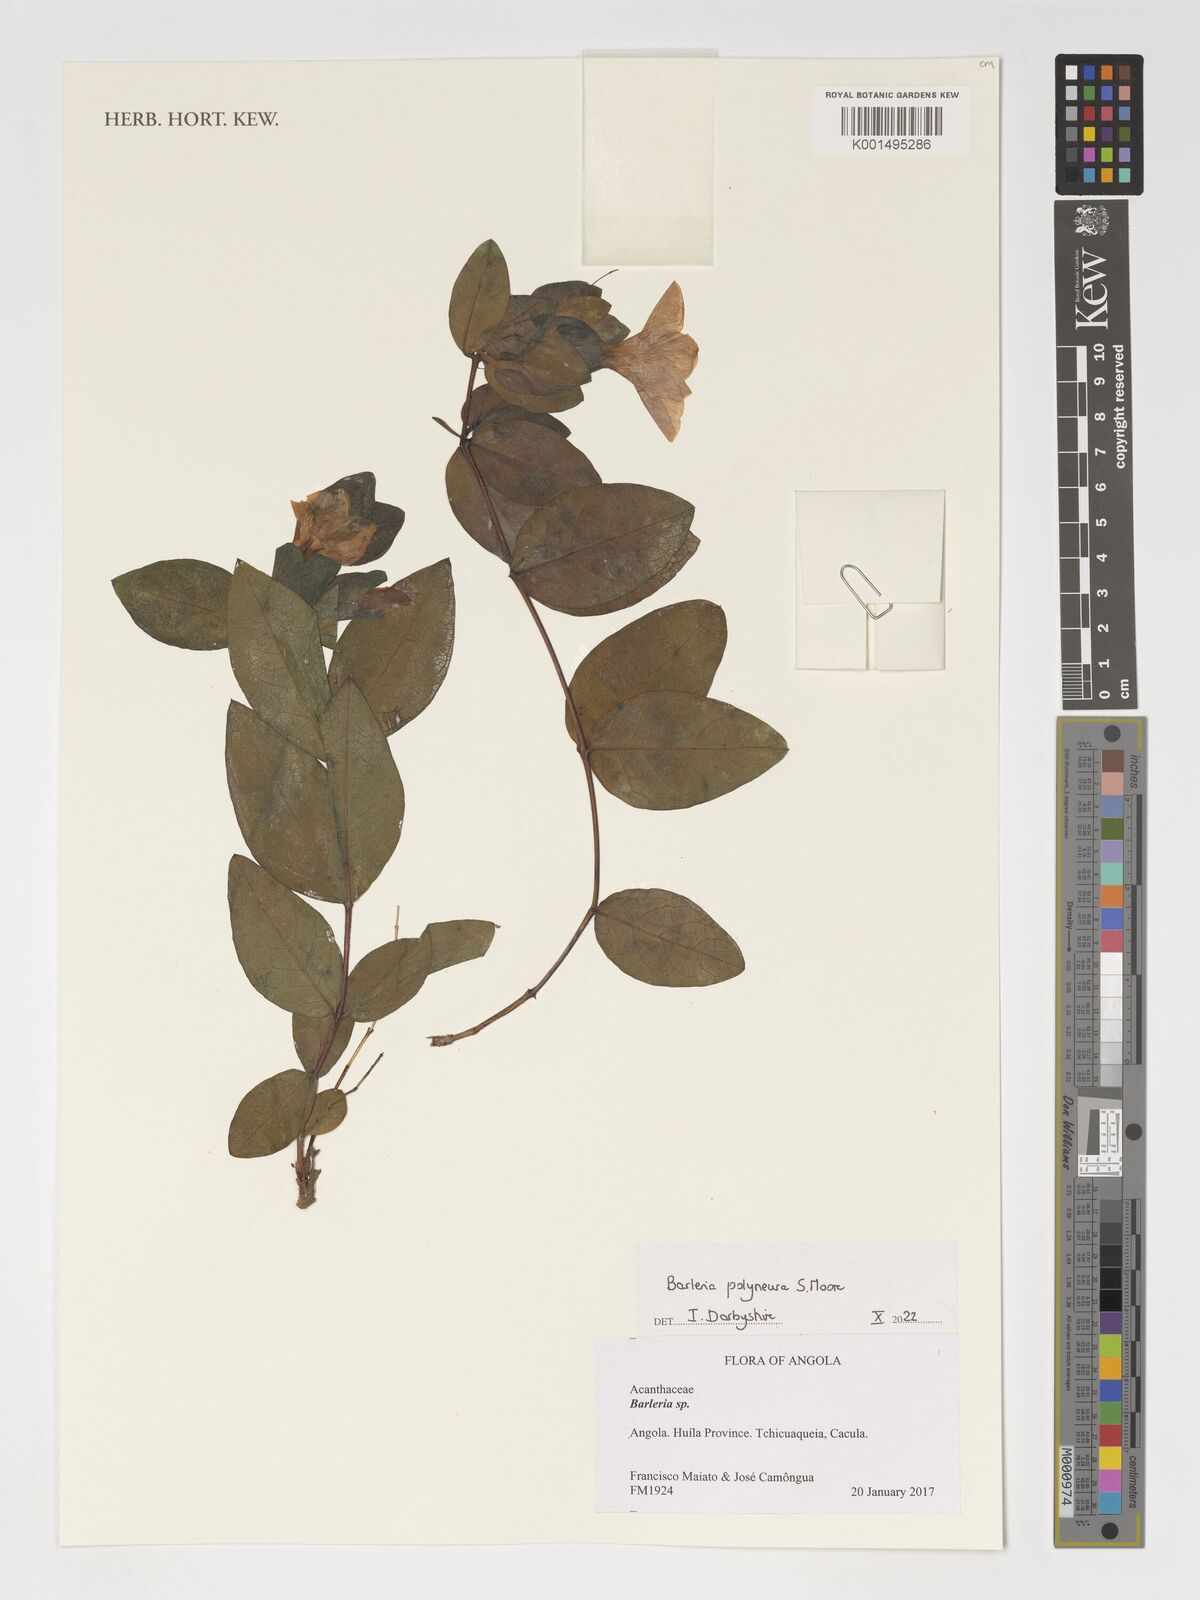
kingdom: Plantae
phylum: Tracheophyta
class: Magnoliopsida
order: Lamiales
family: Acanthaceae
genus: Barleria
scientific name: Barleria polyneura
